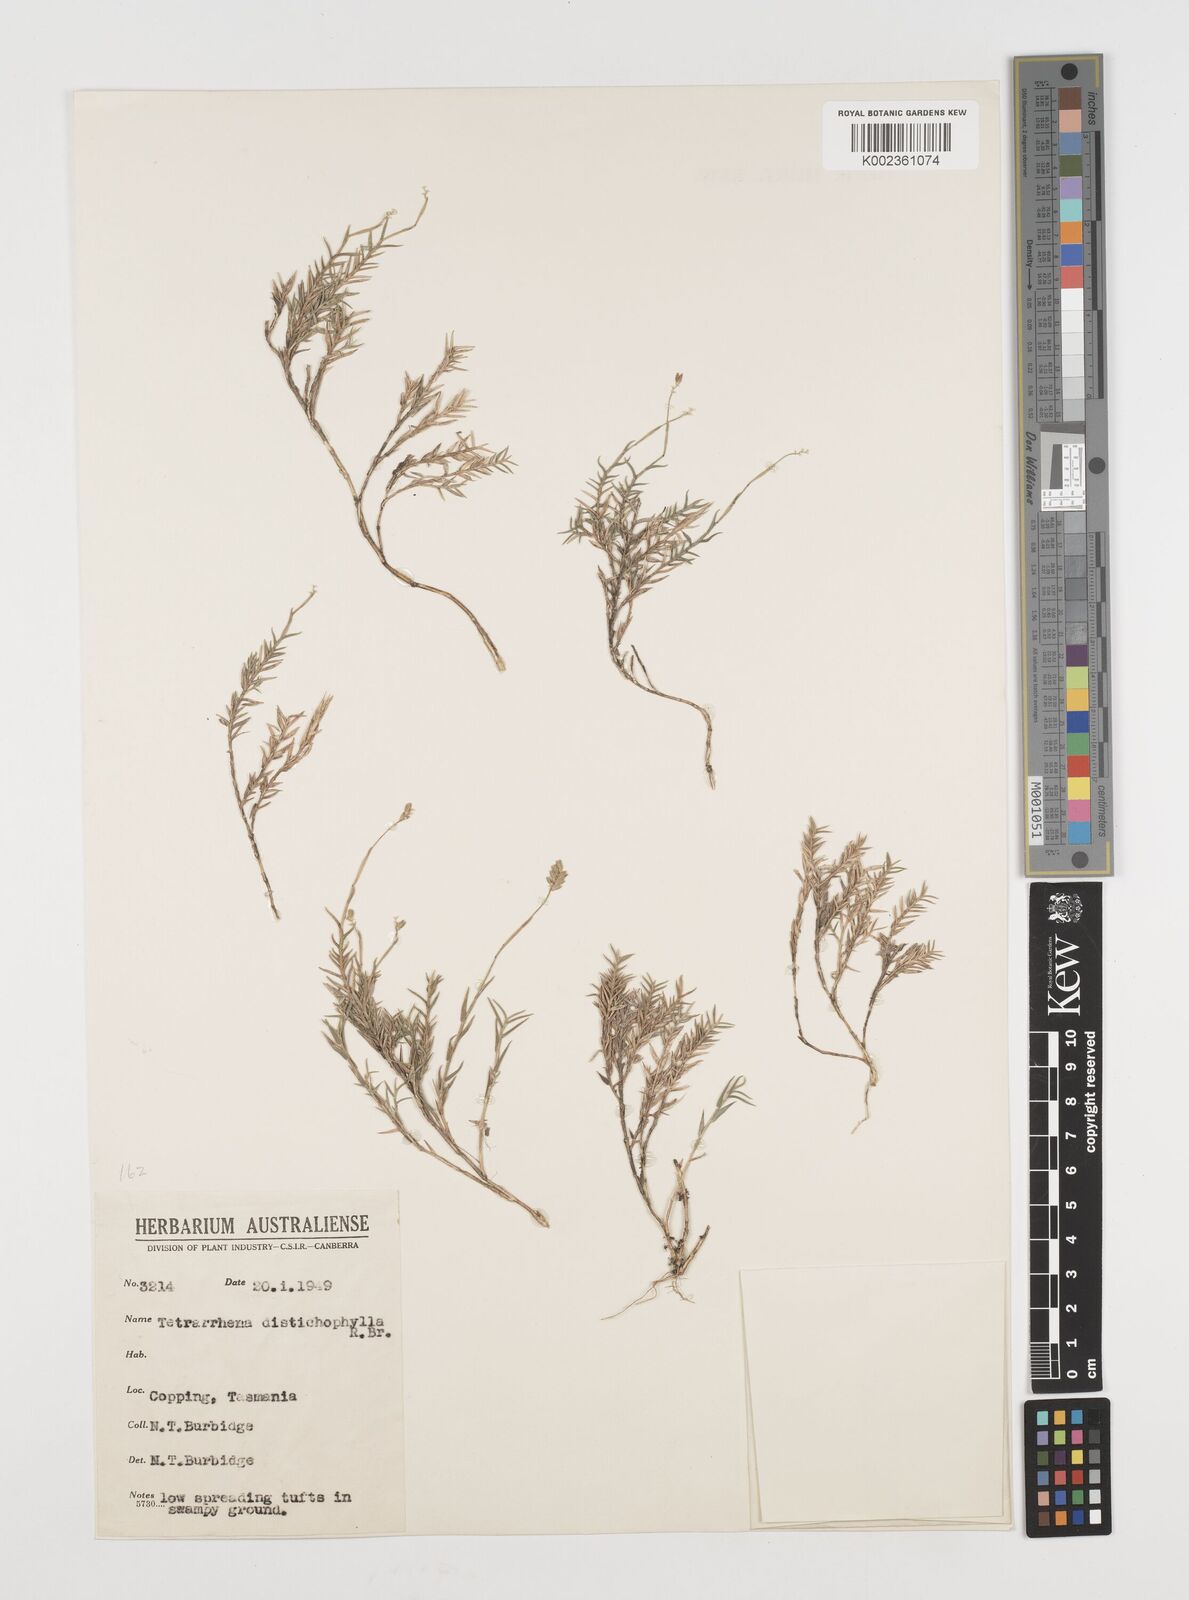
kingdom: Plantae
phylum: Tracheophyta
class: Liliopsida
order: Poales
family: Poaceae
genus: Tetrarrhena
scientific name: Tetrarrhena distichophylla
